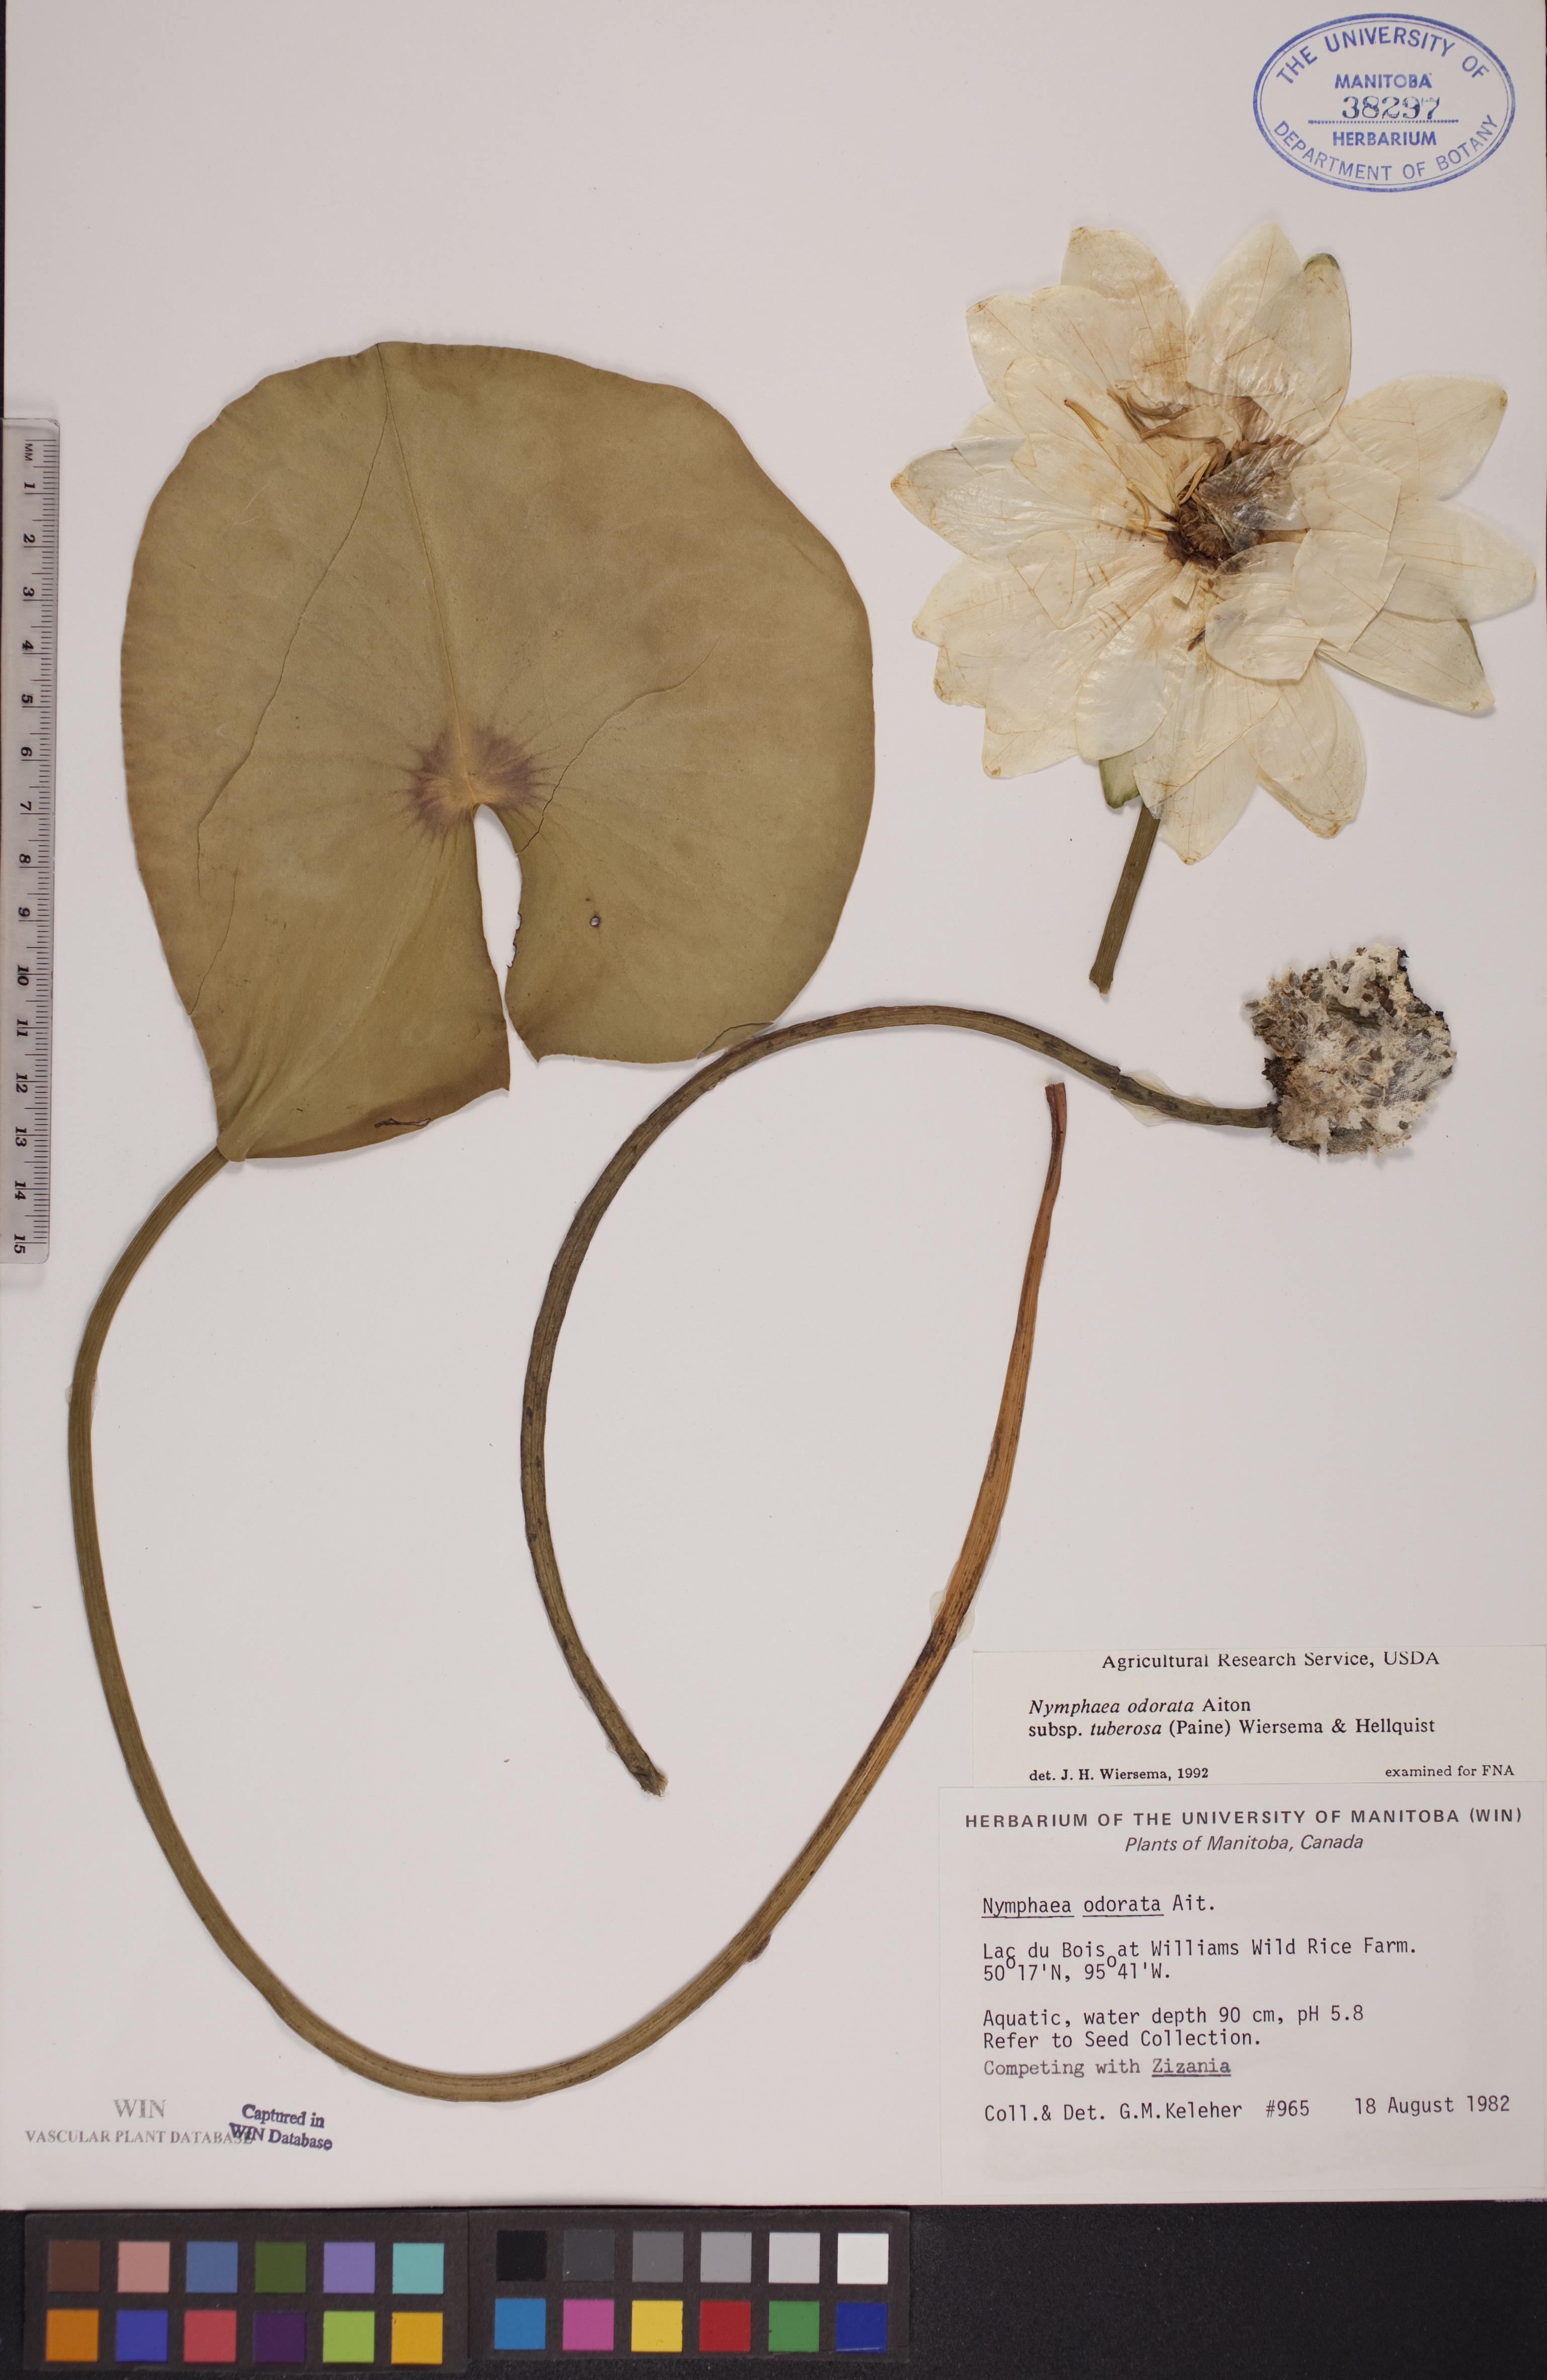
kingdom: Plantae
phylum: Tracheophyta
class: Magnoliopsida
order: Nymphaeales
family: Nymphaeaceae
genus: Nymphaea
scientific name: Nymphaea odorata
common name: Fragrant water-lily
